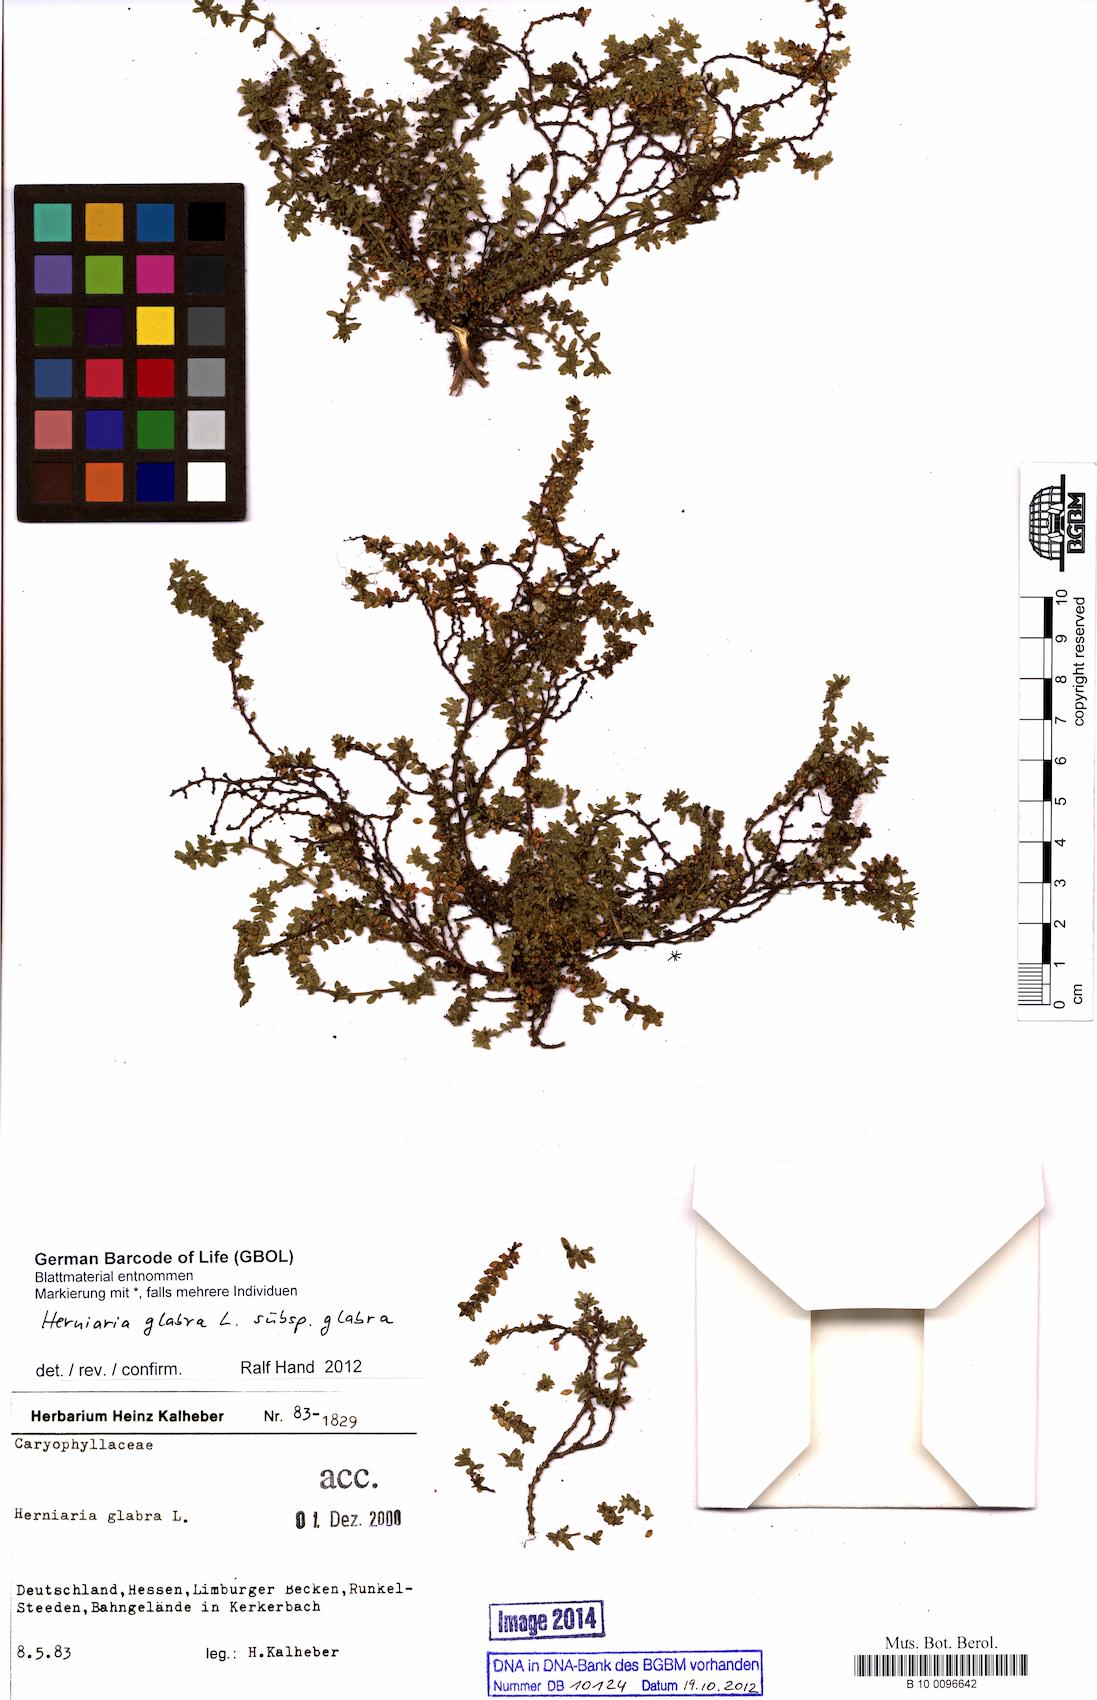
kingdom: Plantae
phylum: Tracheophyta
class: Magnoliopsida
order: Caryophyllales
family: Caryophyllaceae
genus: Herniaria
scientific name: Herniaria glabra
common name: Smooth rupturewort
